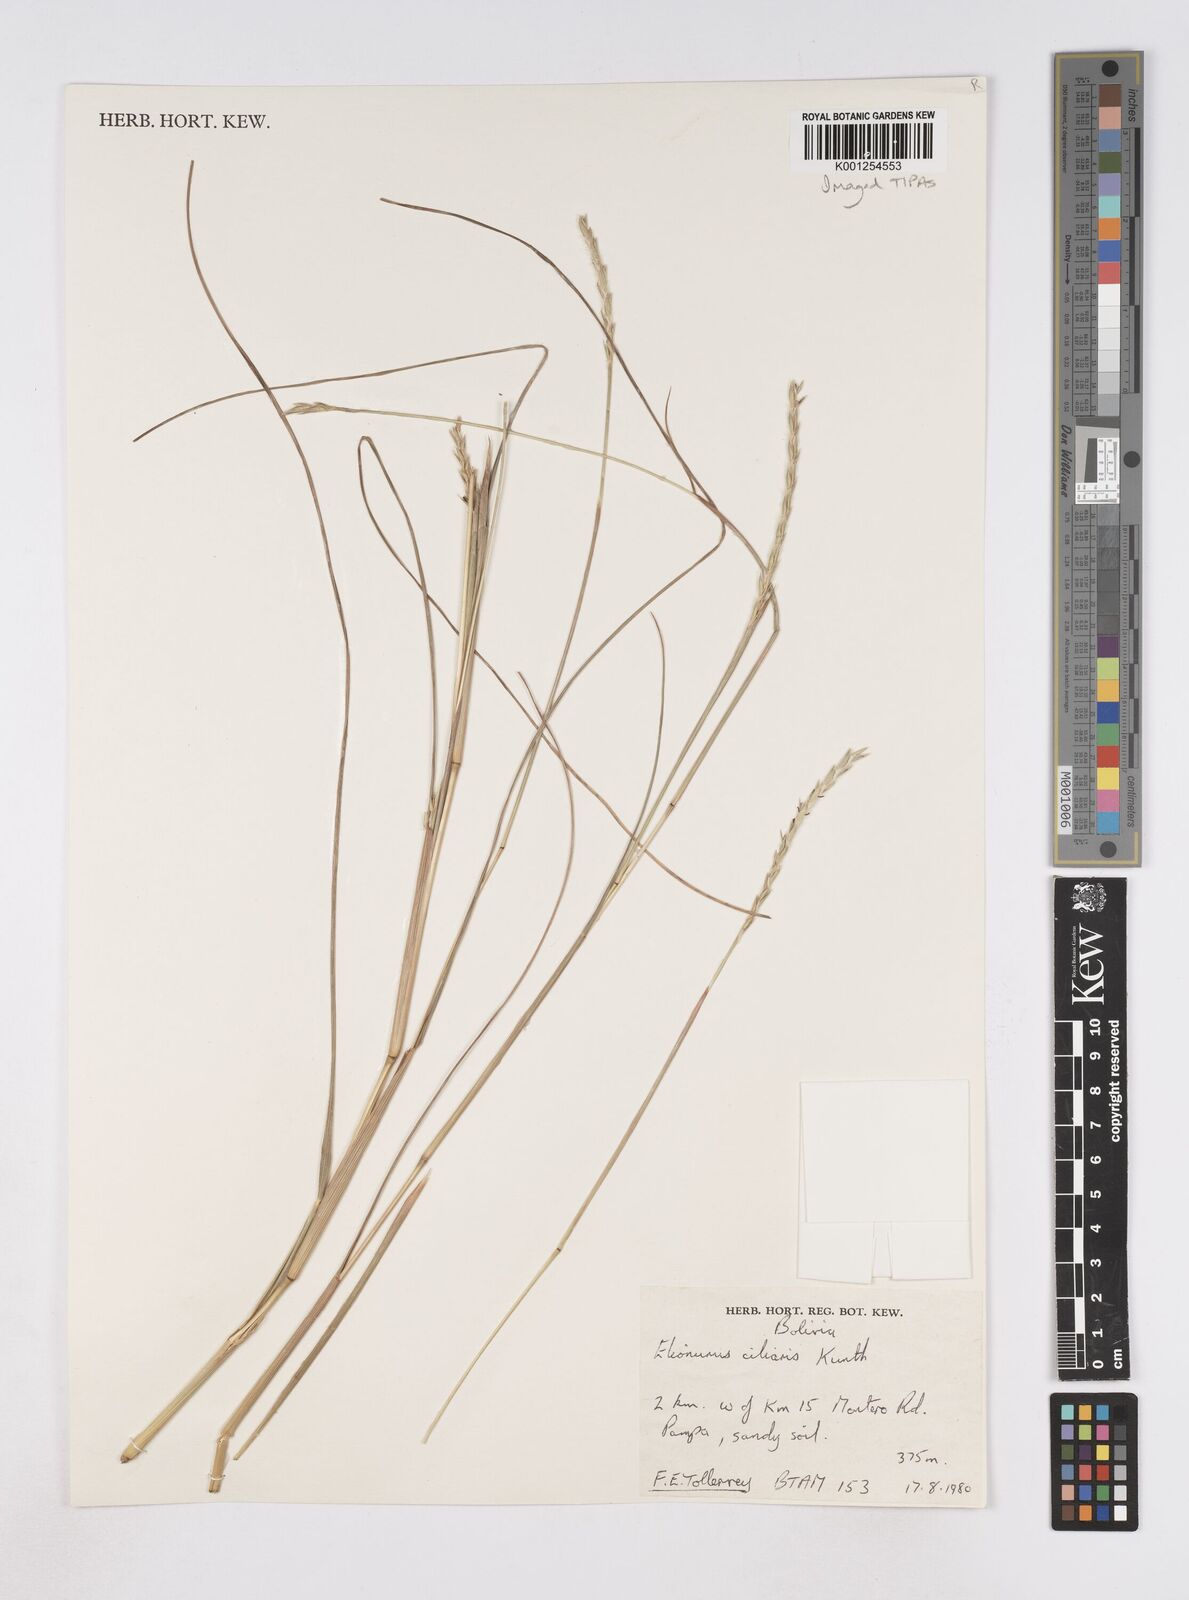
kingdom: Plantae
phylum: Tracheophyta
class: Liliopsida
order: Poales
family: Poaceae
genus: Elionurus
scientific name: Elionurus ciliaris
